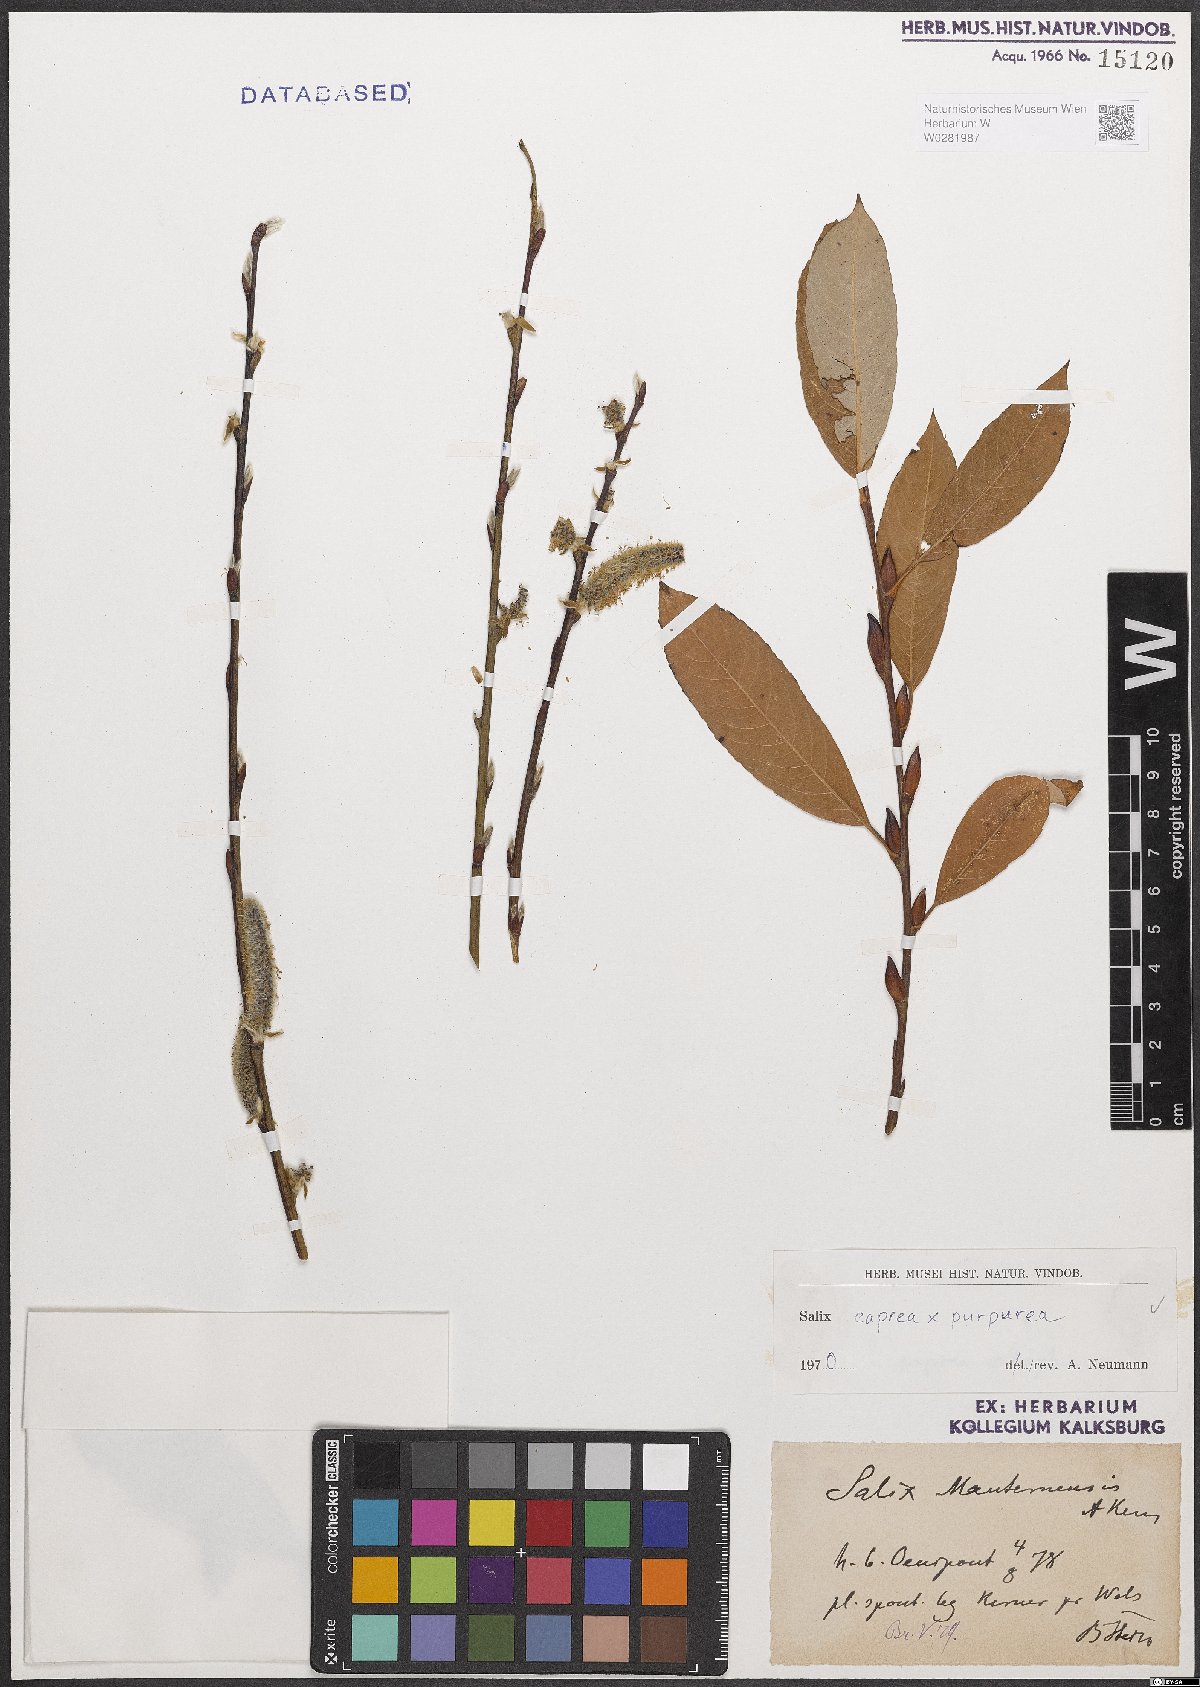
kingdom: Plantae
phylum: Tracheophyta
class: Magnoliopsida
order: Malpighiales
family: Salicaceae
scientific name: Salicaceae
